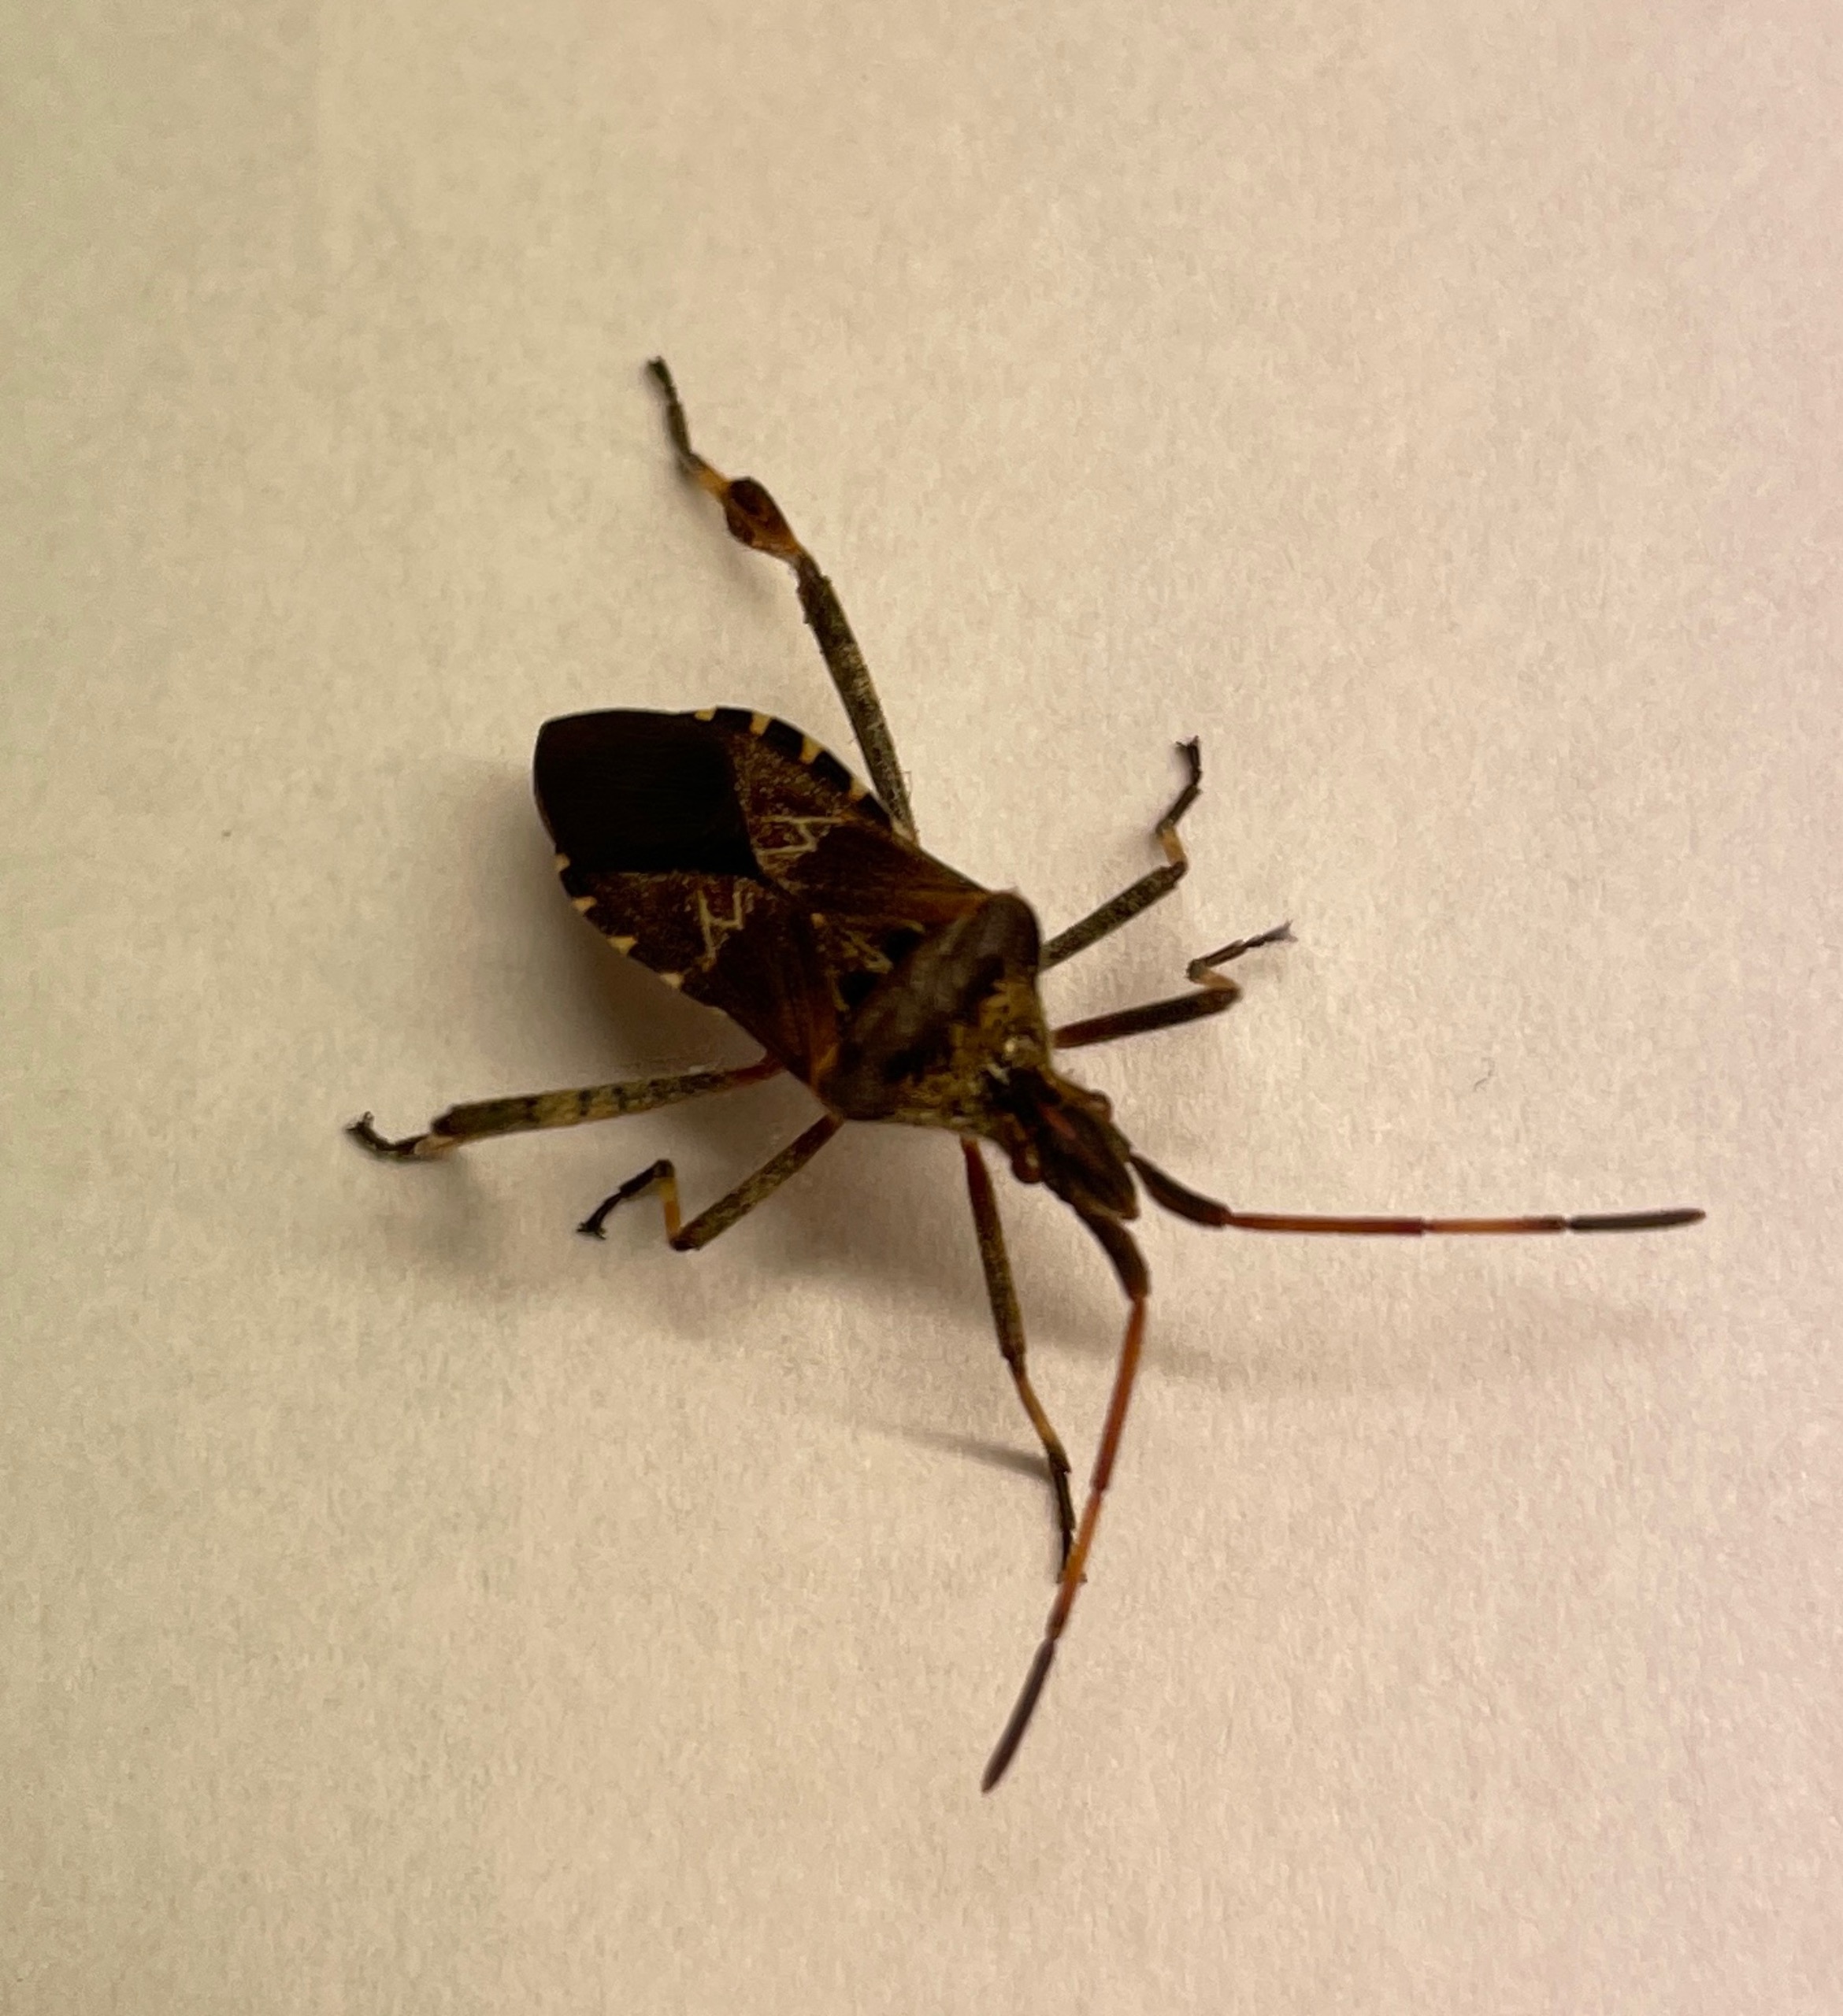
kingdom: Animalia
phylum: Arthropoda
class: Insecta
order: Hemiptera
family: Coreidae
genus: Leptoglossus
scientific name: Leptoglossus occidentalis
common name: Amerikansk fyrretæge
